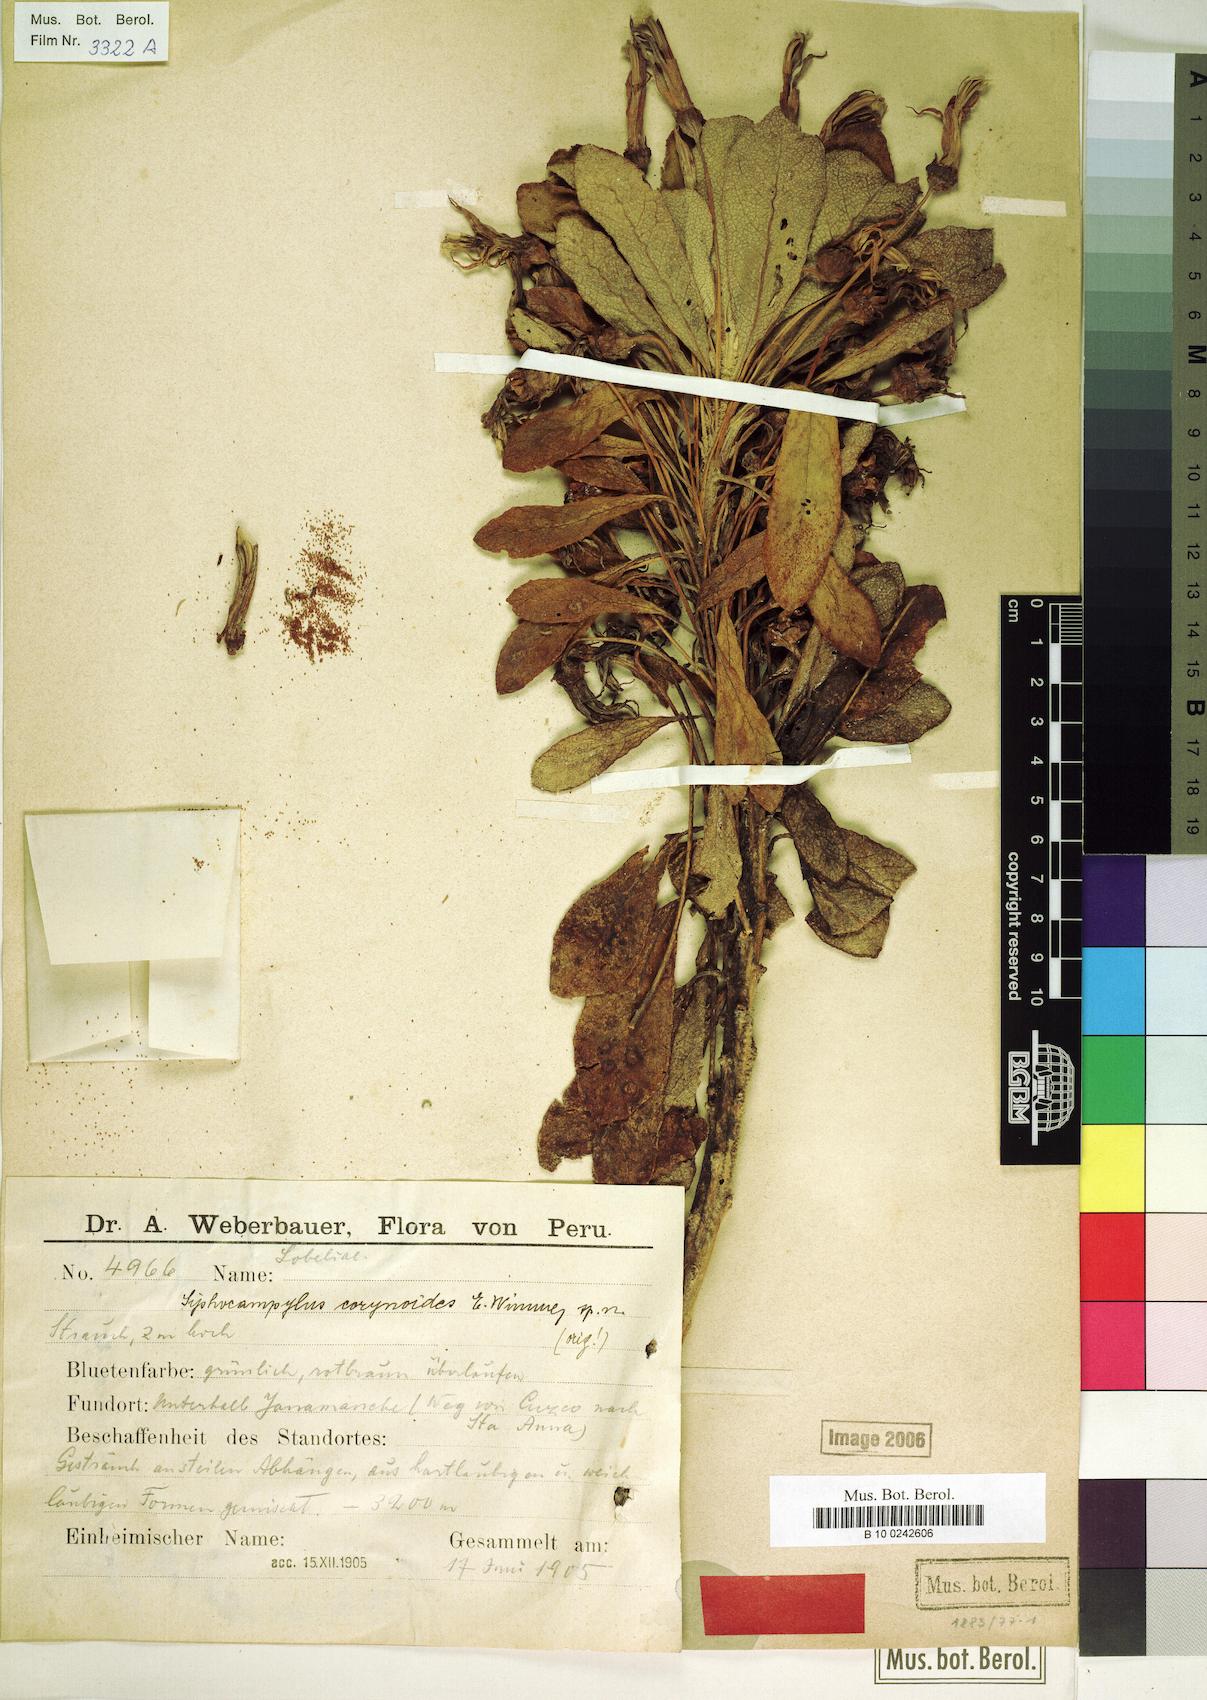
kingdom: Plantae
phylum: Tracheophyta
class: Magnoliopsida
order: Asterales
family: Campanulaceae
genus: Siphocampylus
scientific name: Siphocampylus corynoides
